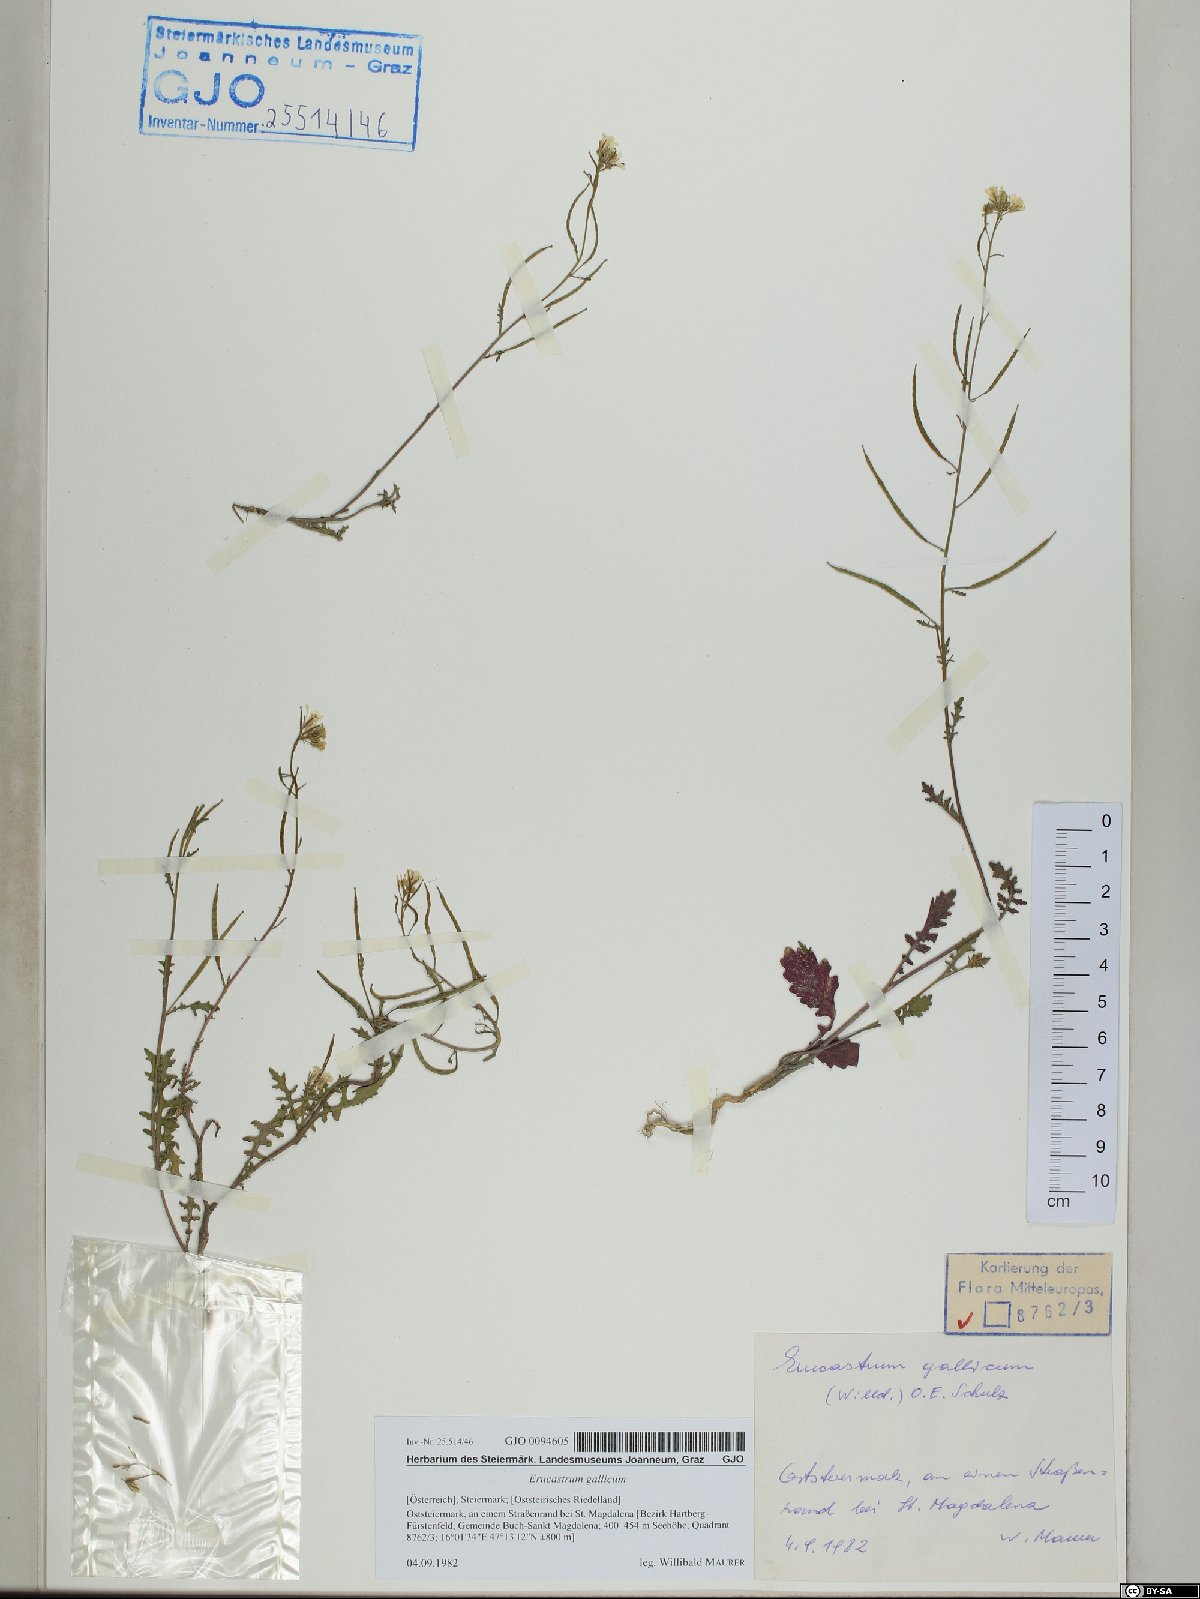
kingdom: Plantae
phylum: Tracheophyta
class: Magnoliopsida
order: Brassicales
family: Brassicaceae
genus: Erucastrum
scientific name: Erucastrum gallicum
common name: Hairy rocket
